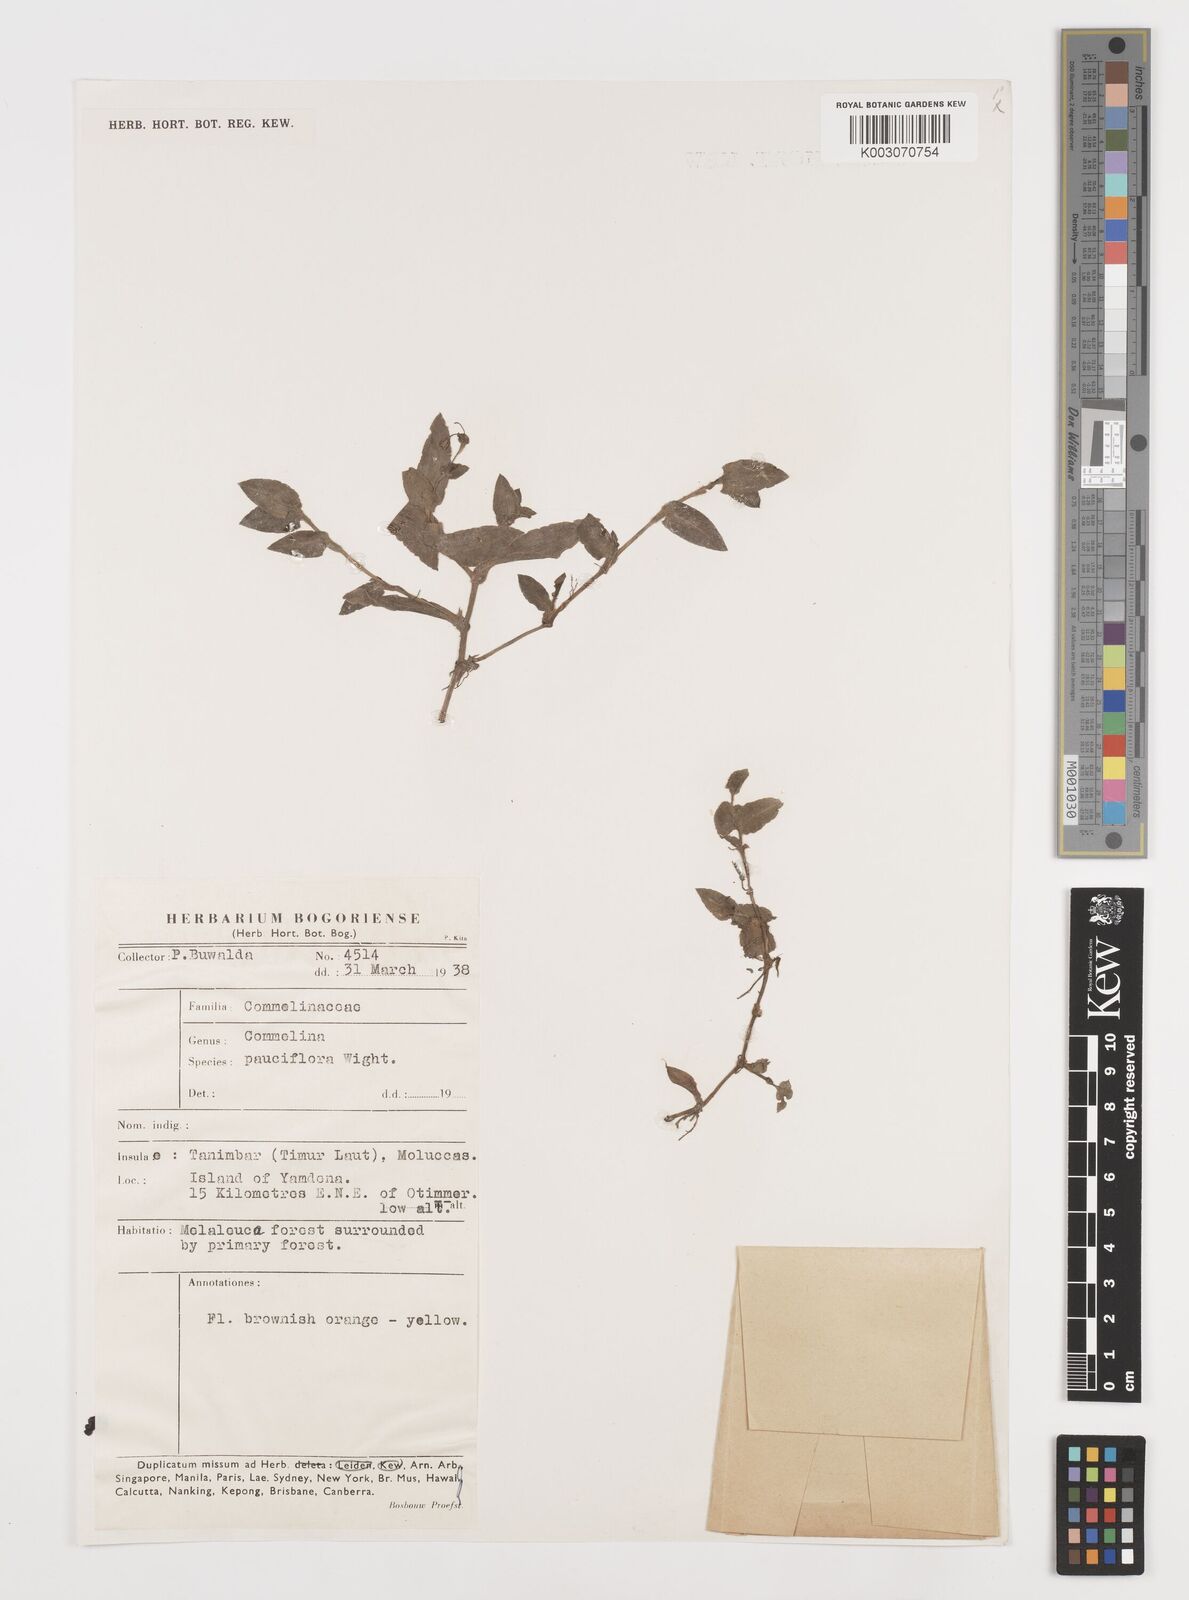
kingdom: Plantae
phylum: Tracheophyta
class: Liliopsida
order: Commelinales
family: Commelinaceae
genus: Commelina
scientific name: Commelina
